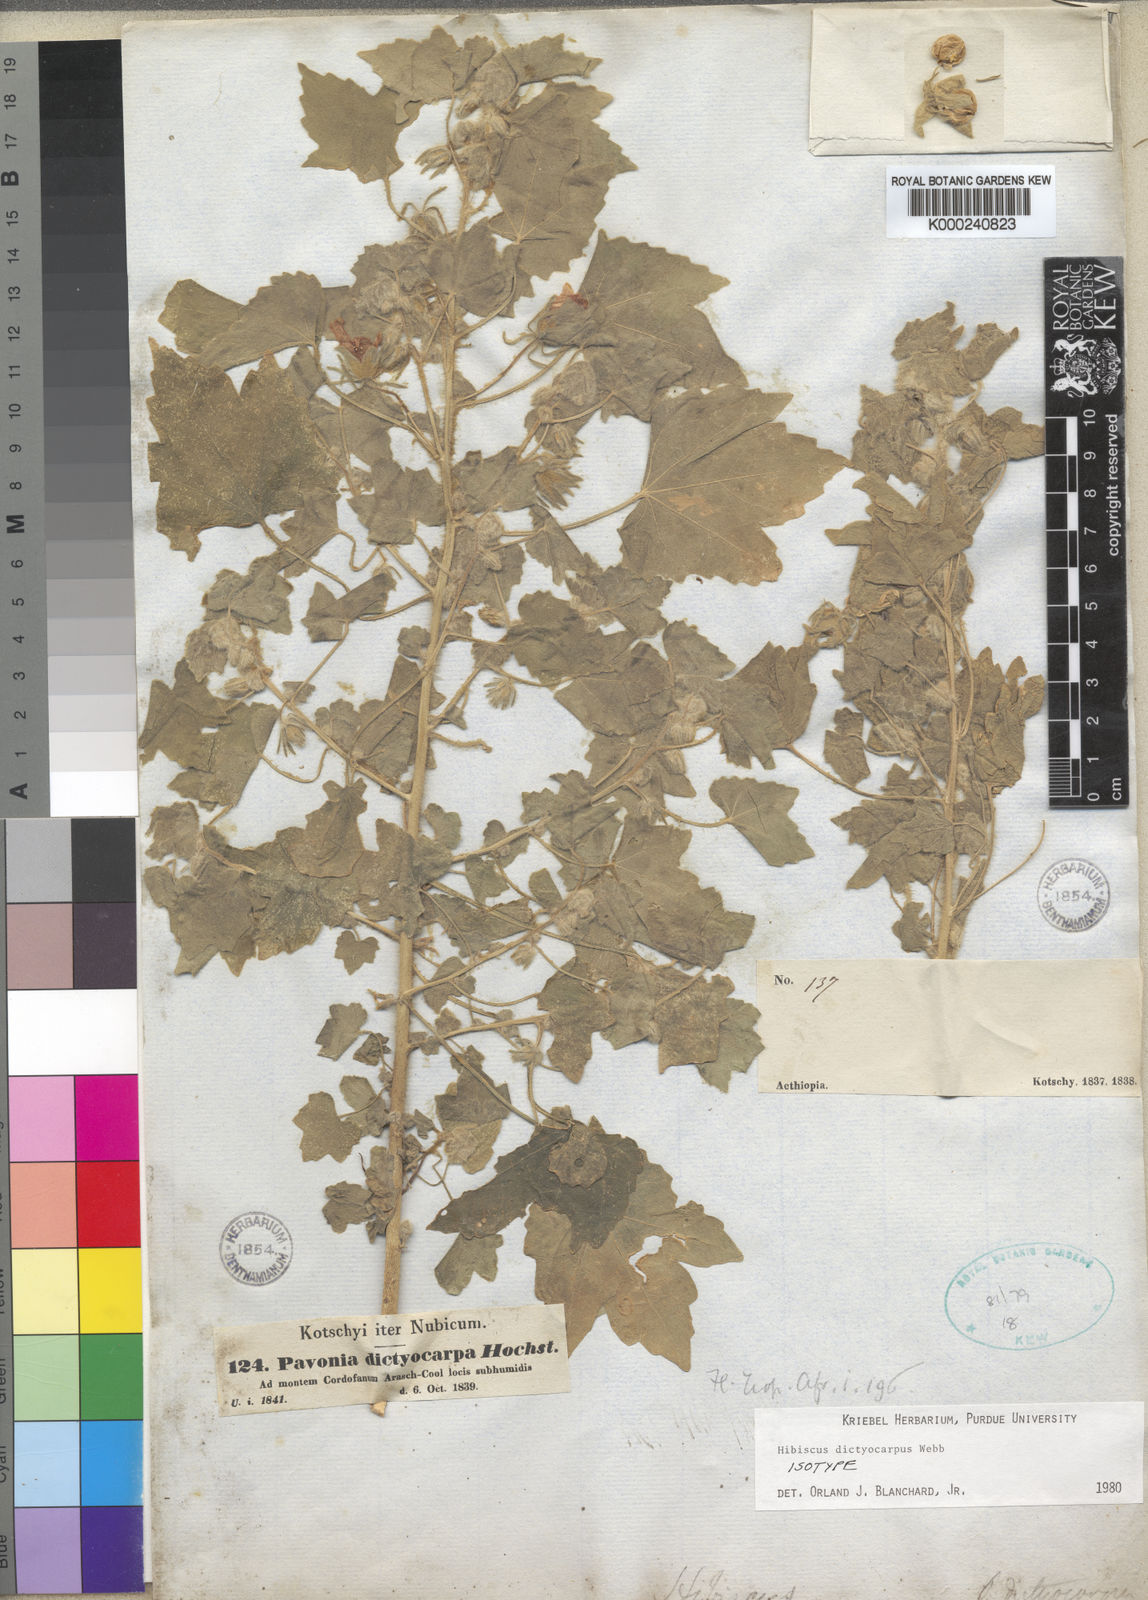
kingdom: Plantae
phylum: Tracheophyta
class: Magnoliopsida
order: Malvales
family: Malvaceae
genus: Roifia
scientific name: Roifia dictyocarpa
